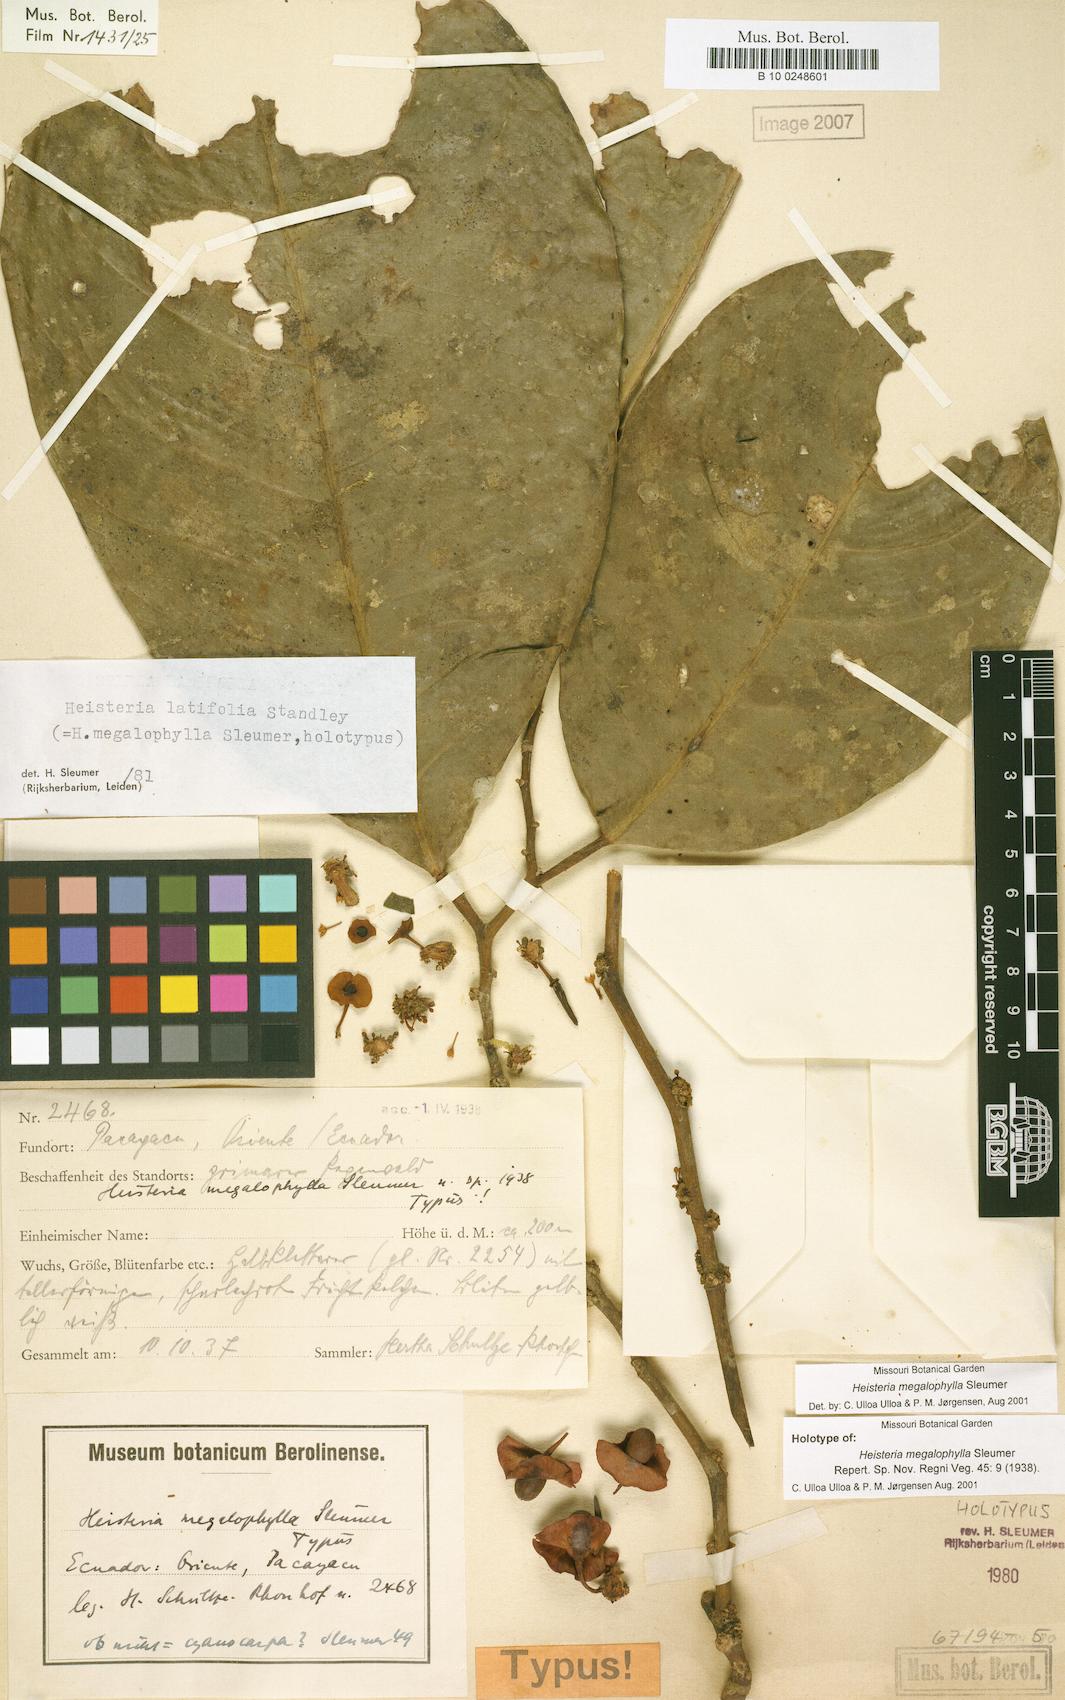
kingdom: Plantae
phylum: Tracheophyta
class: Magnoliopsida
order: Santalales
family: Erythropalaceae
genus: Heisteria
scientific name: Heisteria latifolia
